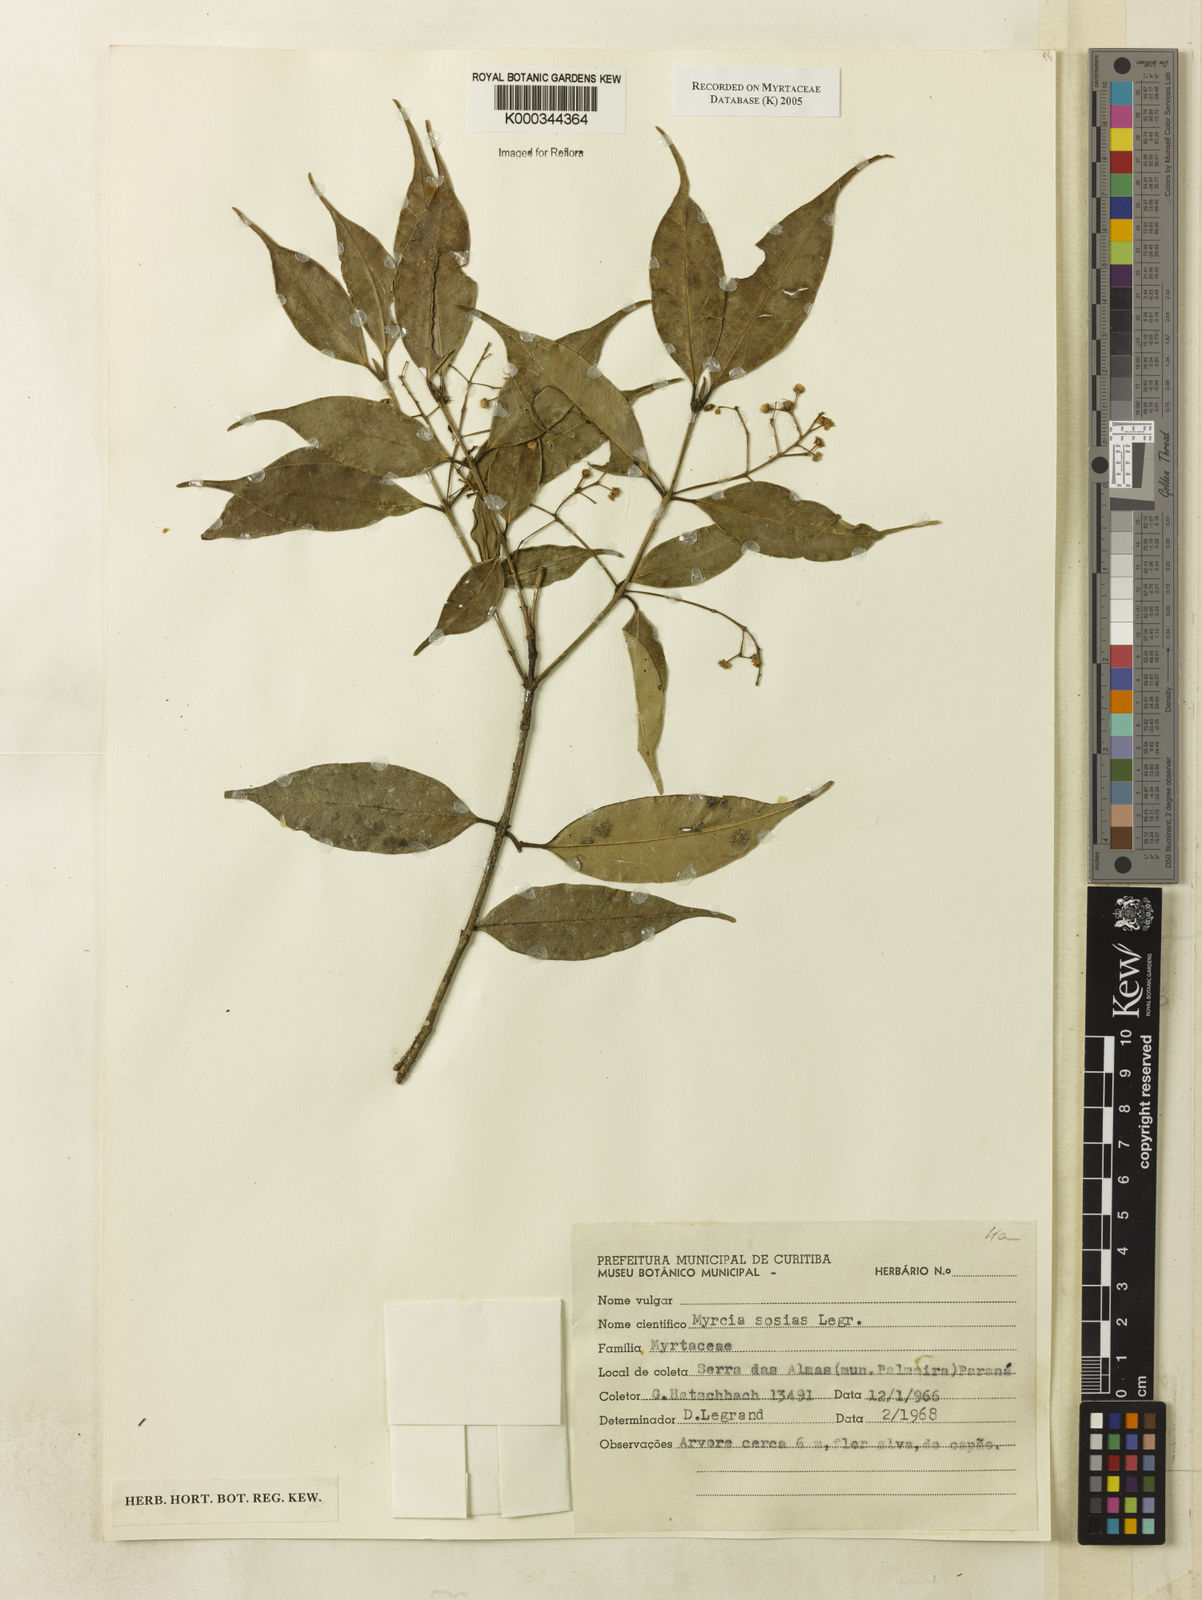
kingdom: Plantae
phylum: Tracheophyta
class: Magnoliopsida
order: Myrtales
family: Myrtaceae
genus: Myrcia
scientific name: Myrcia sosias
